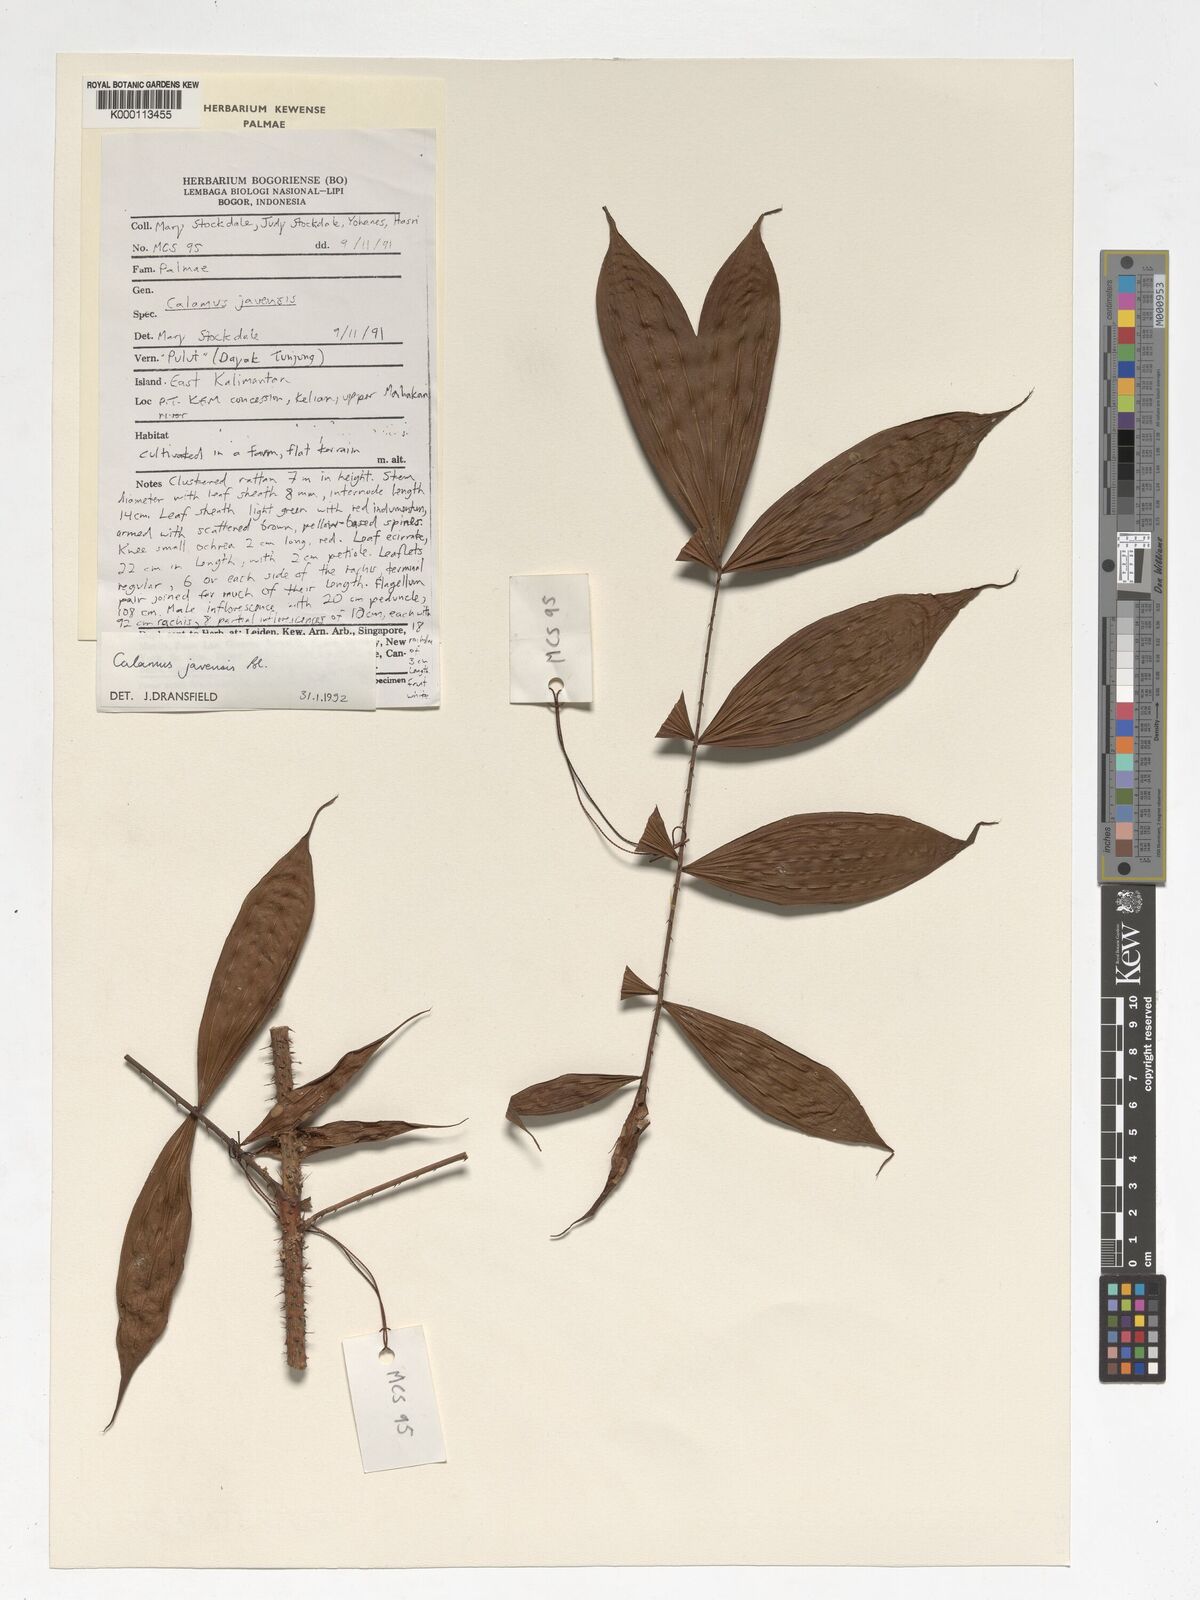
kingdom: Plantae
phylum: Tracheophyta
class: Liliopsida
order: Arecales
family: Arecaceae
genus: Calamus
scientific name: Calamus javensis
